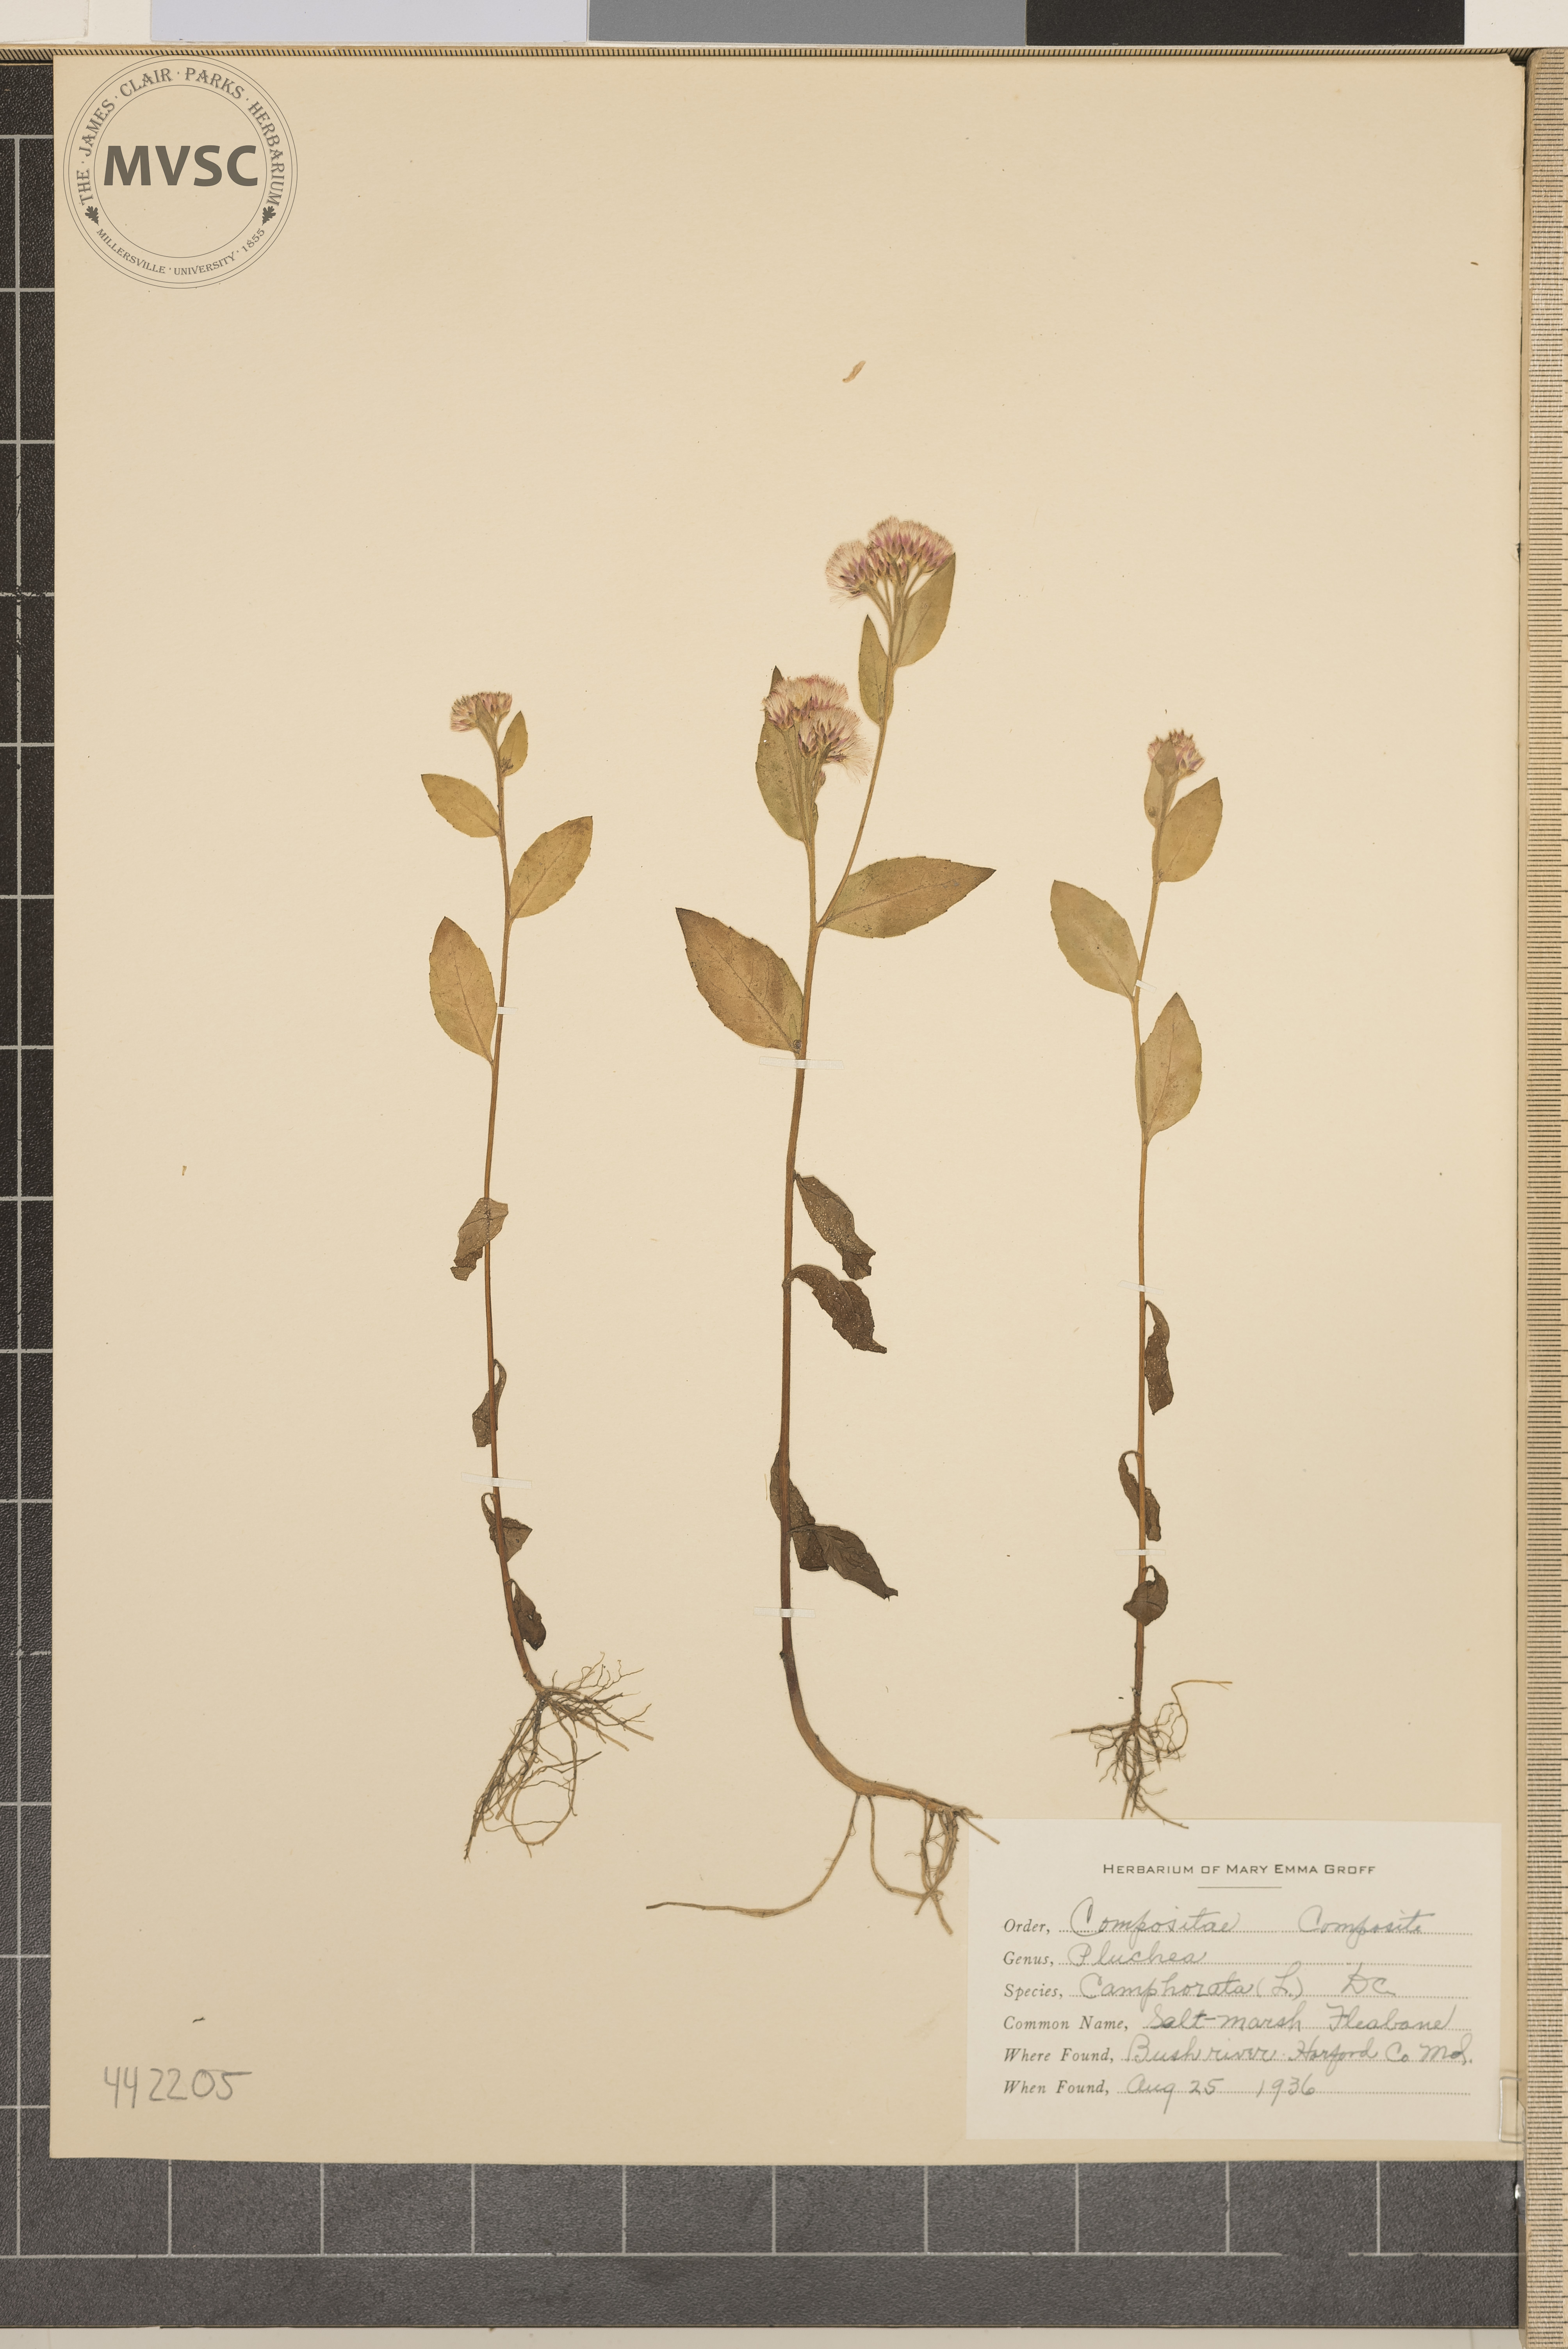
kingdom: Plantae
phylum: Tracheophyta
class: Magnoliopsida
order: Asterales
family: Asteraceae
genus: Pluchea
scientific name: Pluchea camphorata
